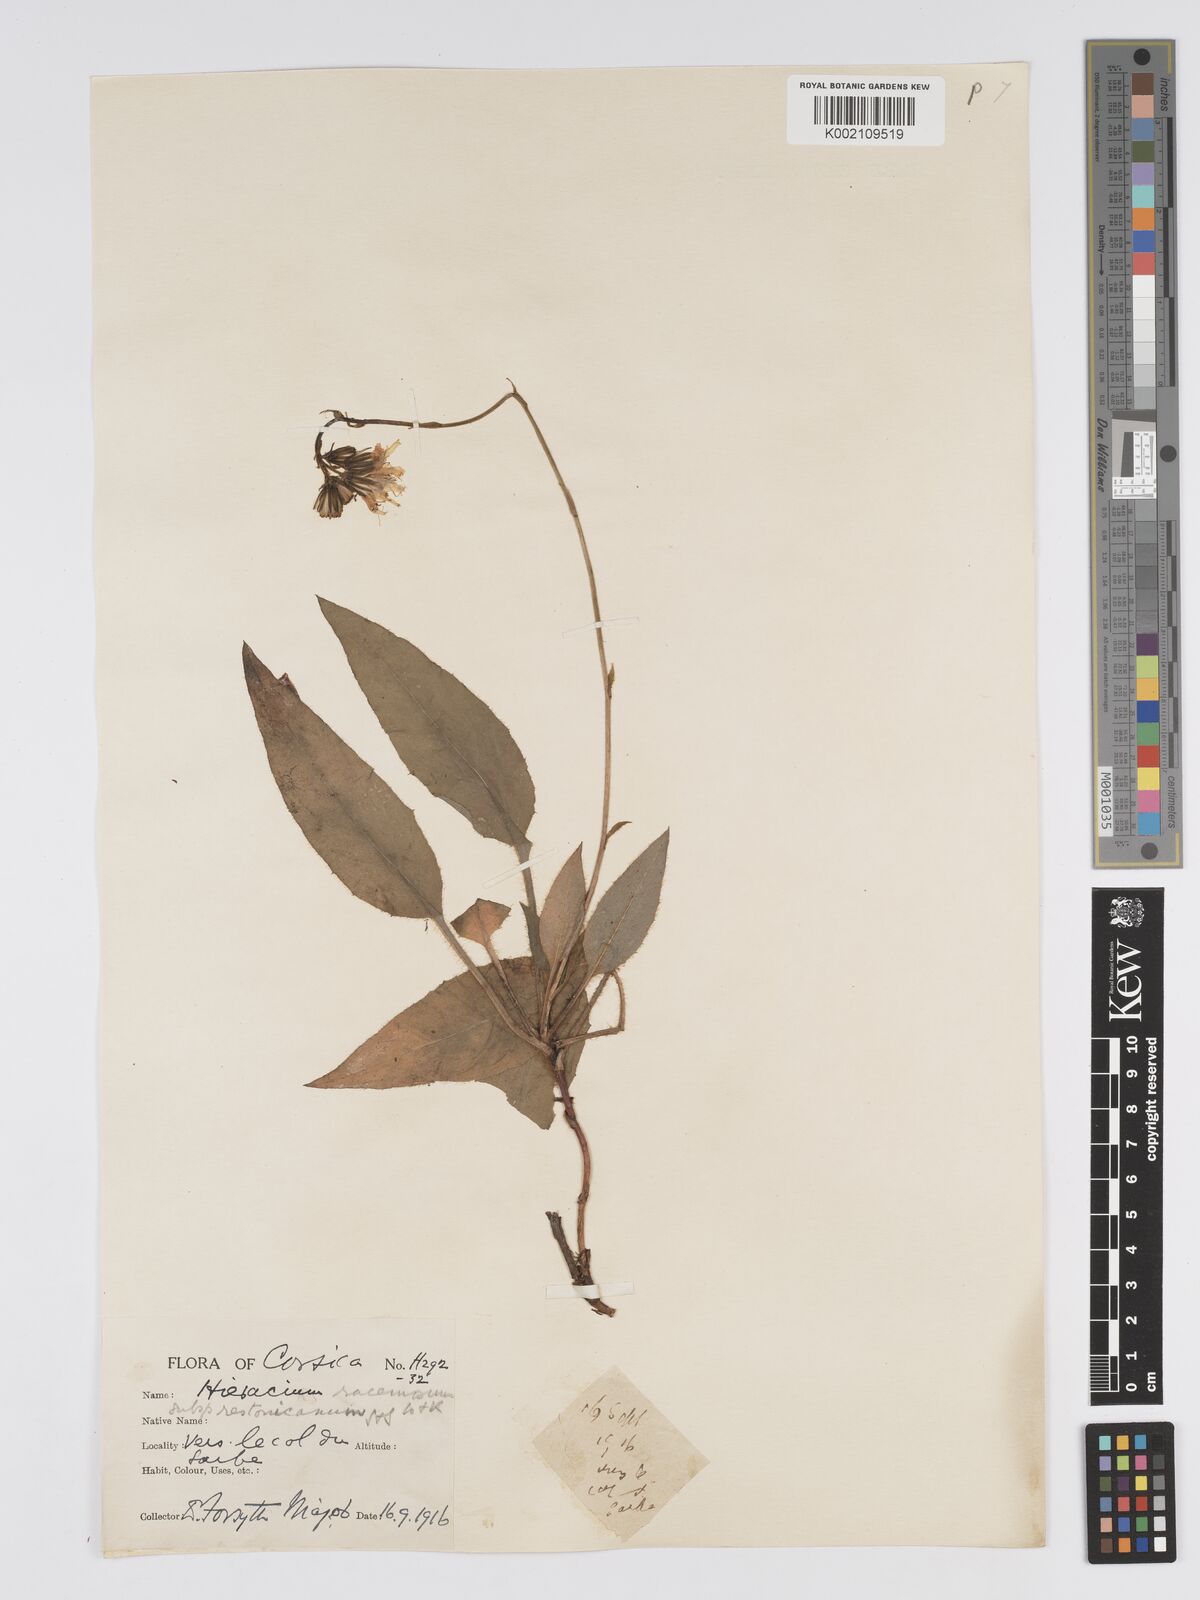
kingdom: Plantae
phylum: Tracheophyta
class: Magnoliopsida
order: Asterales
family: Asteraceae
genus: Hieracium
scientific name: Hieracium
